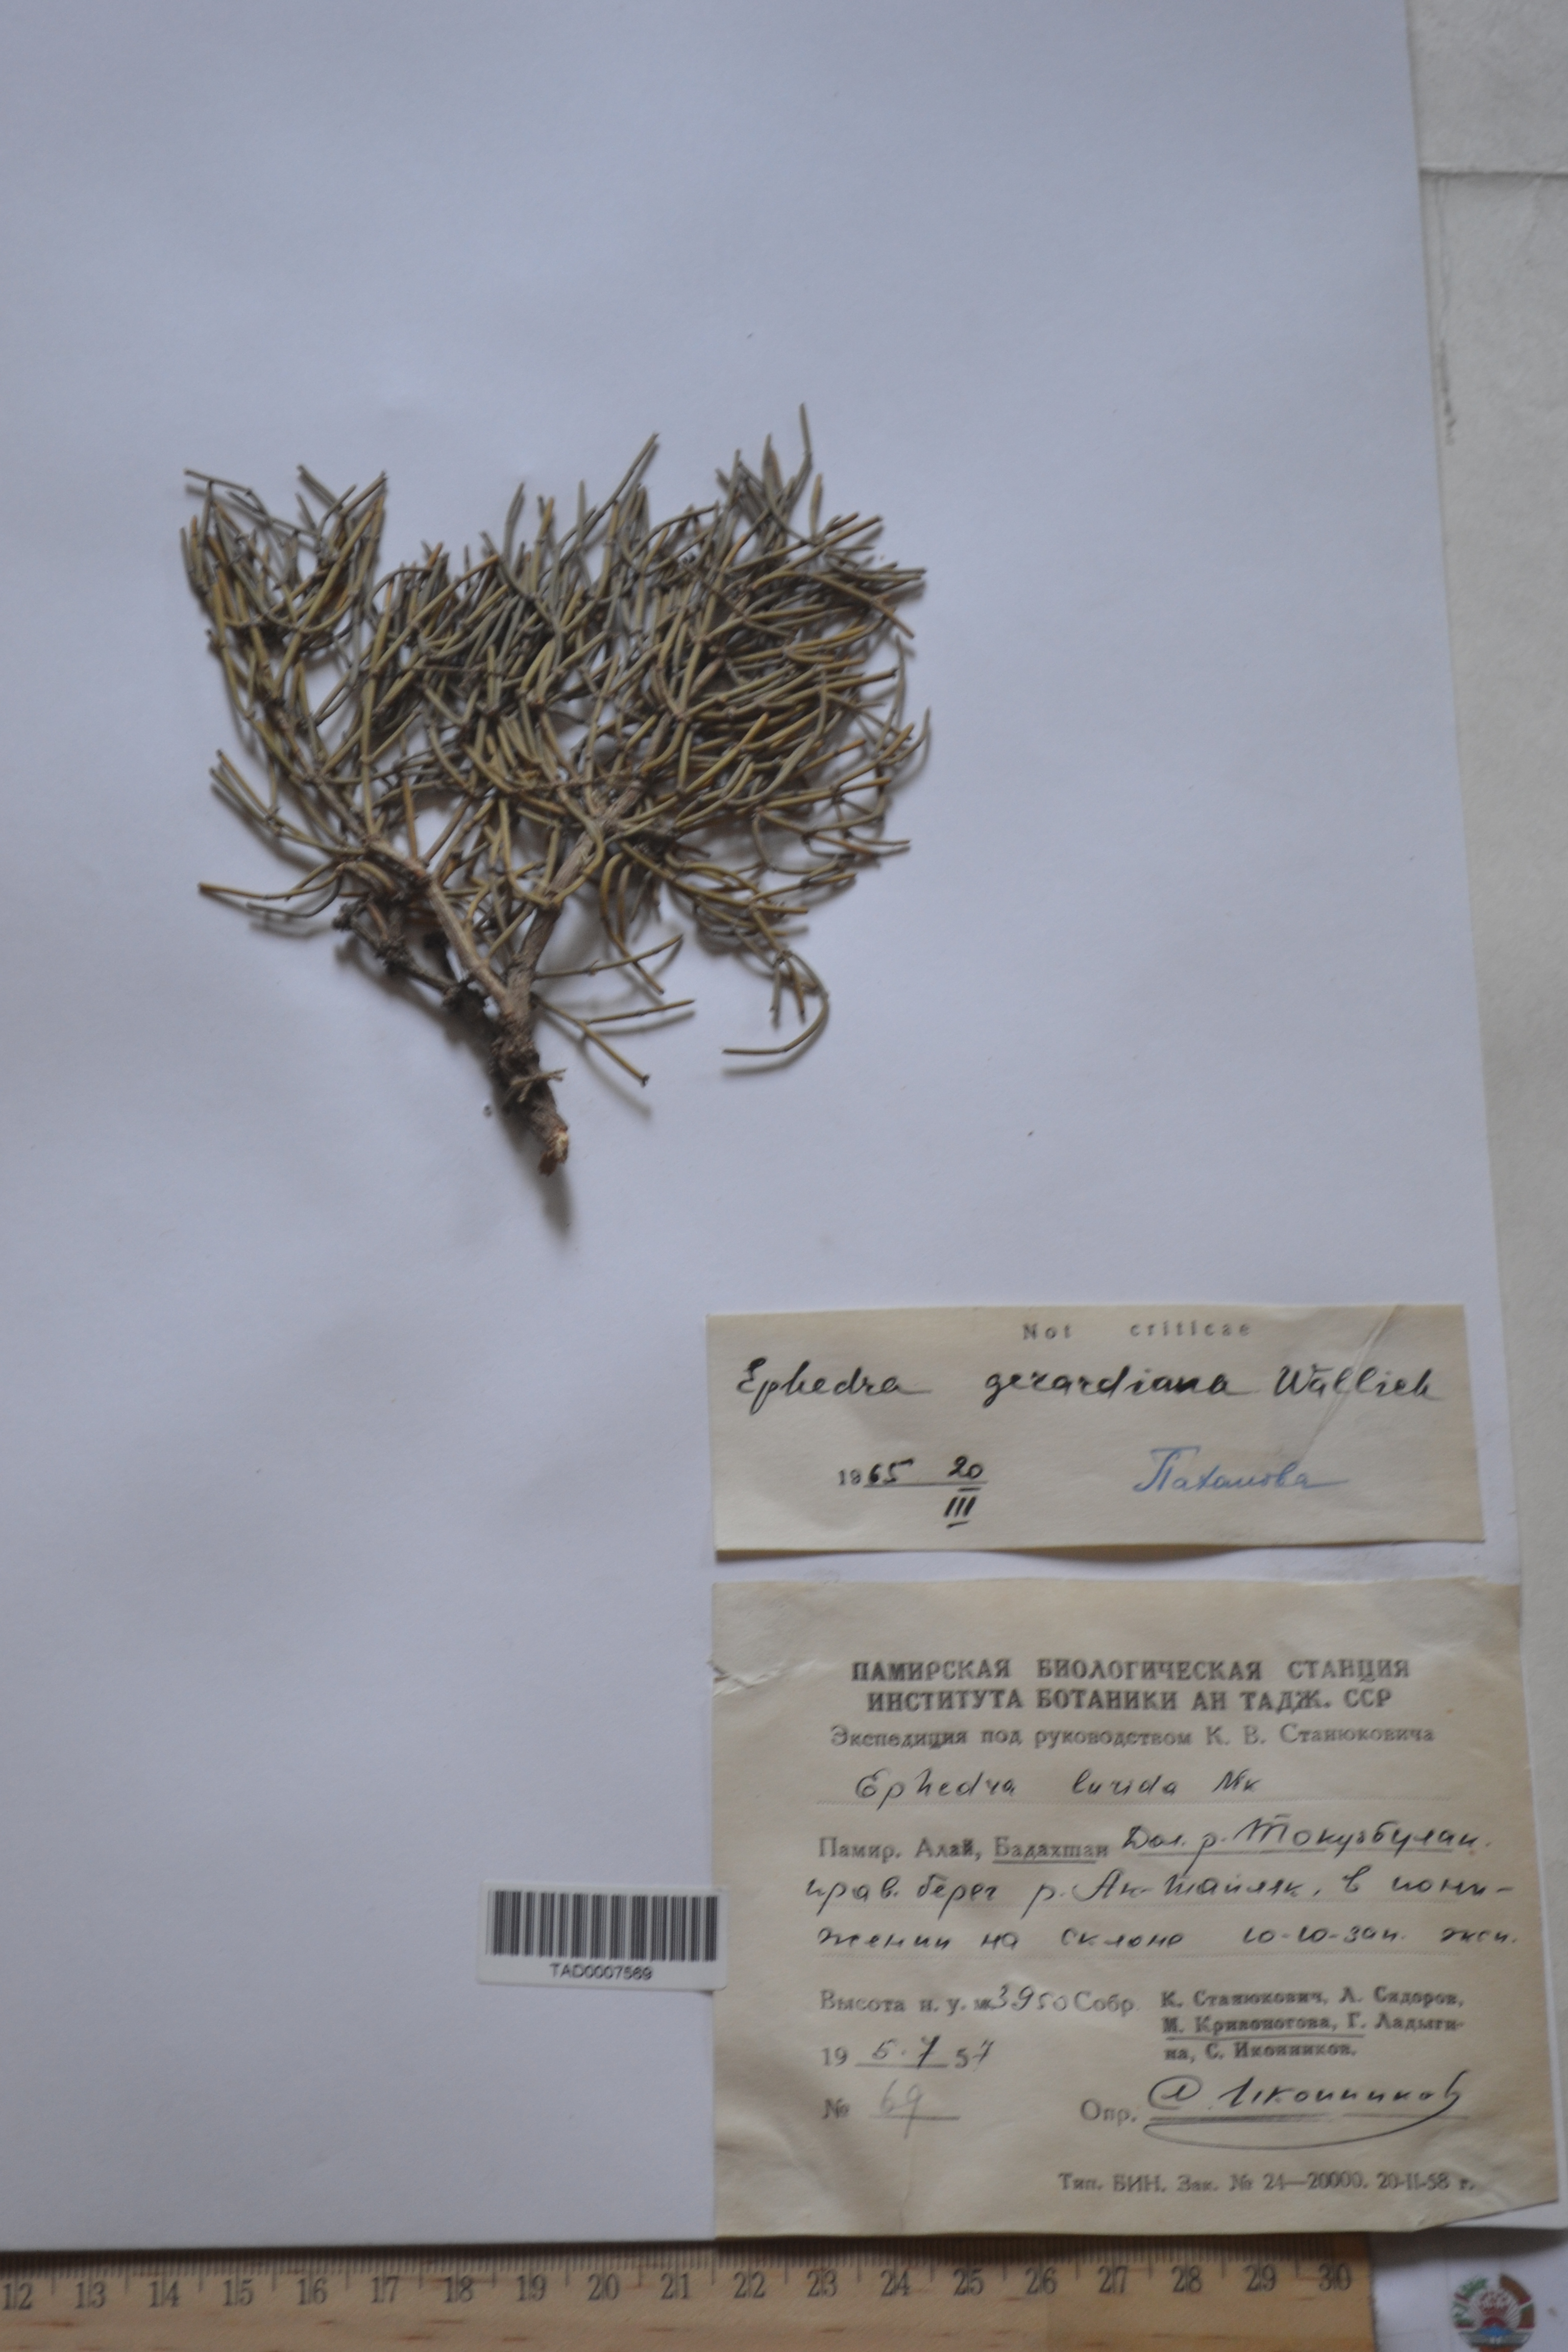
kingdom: Plantae
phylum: Tracheophyta
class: Gnetopsida
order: Ephedrales
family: Ephedraceae
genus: Ephedra
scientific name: Ephedra gerardiana
